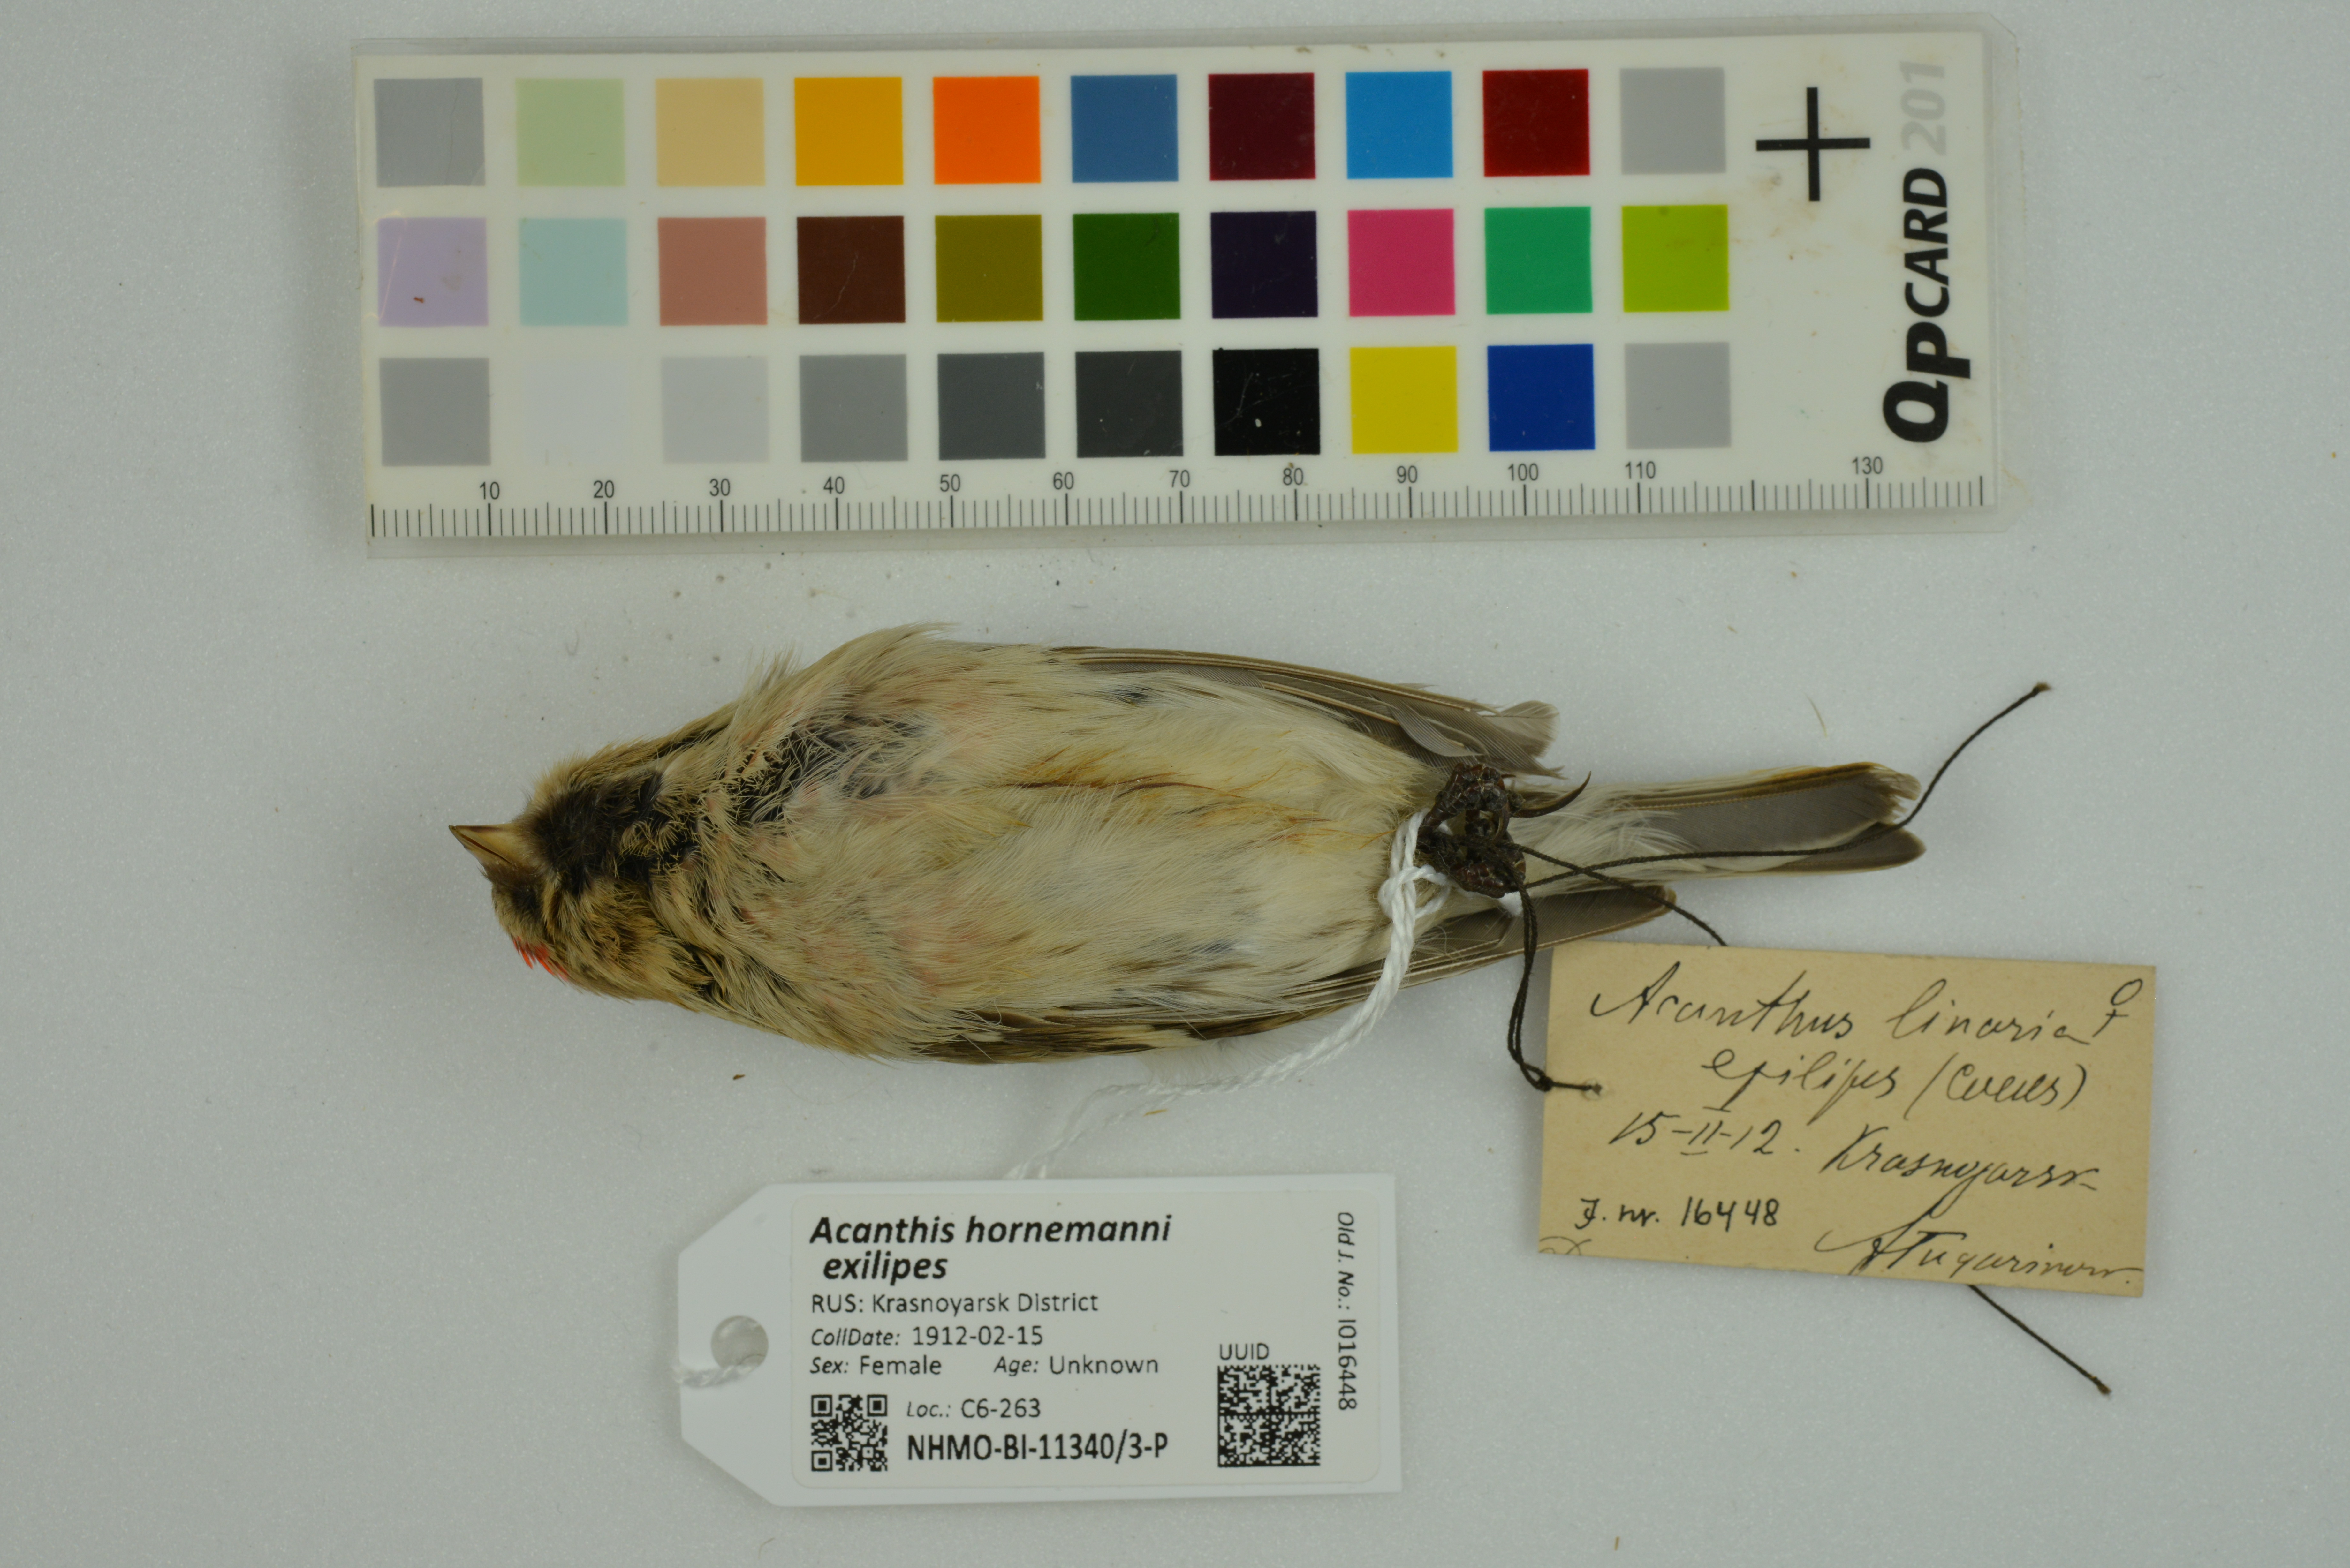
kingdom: Animalia
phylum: Chordata
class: Aves
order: Passeriformes
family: Fringillidae
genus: Acanthis
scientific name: Acanthis hornemanni
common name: Arctic redpoll
